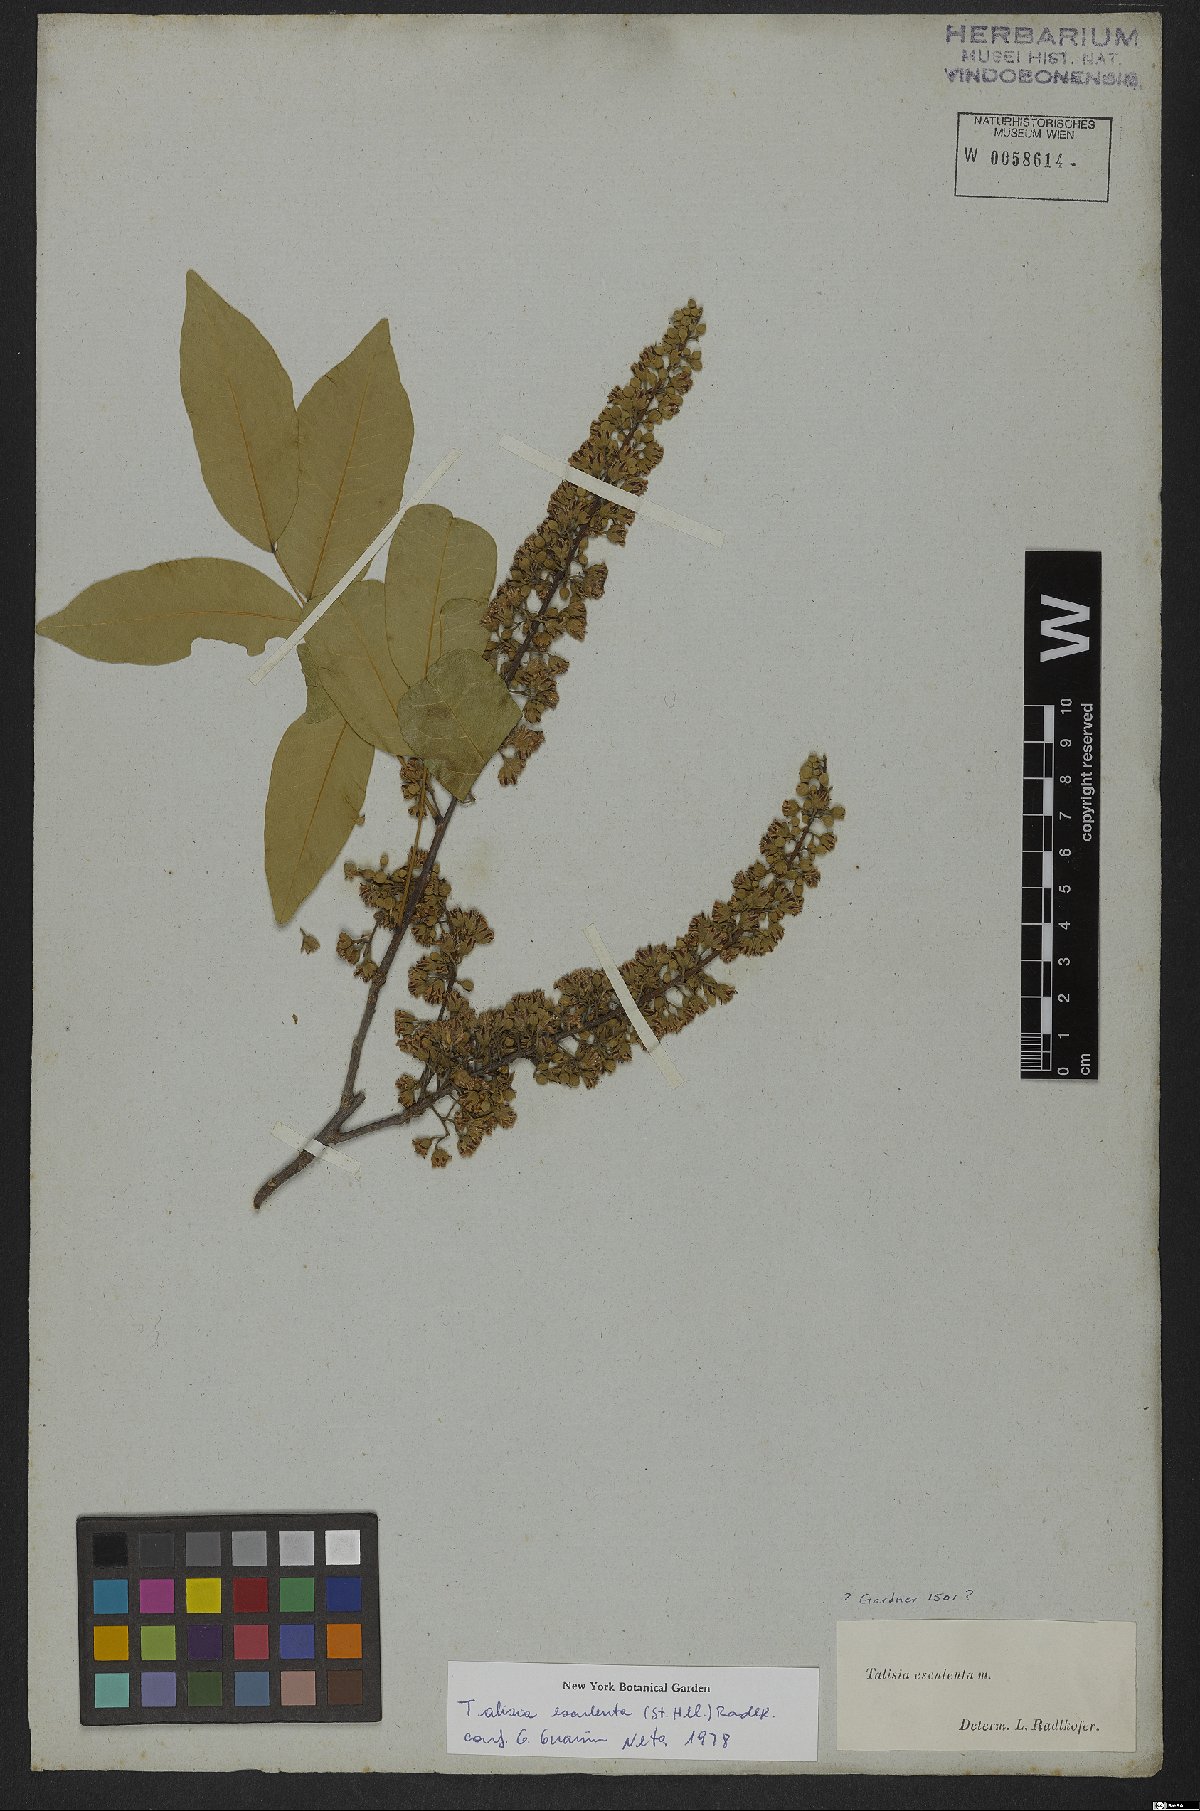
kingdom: Plantae
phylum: Tracheophyta
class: Magnoliopsida
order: Sapindales
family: Sapindaceae
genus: Talisia
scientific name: Talisia esculenta
